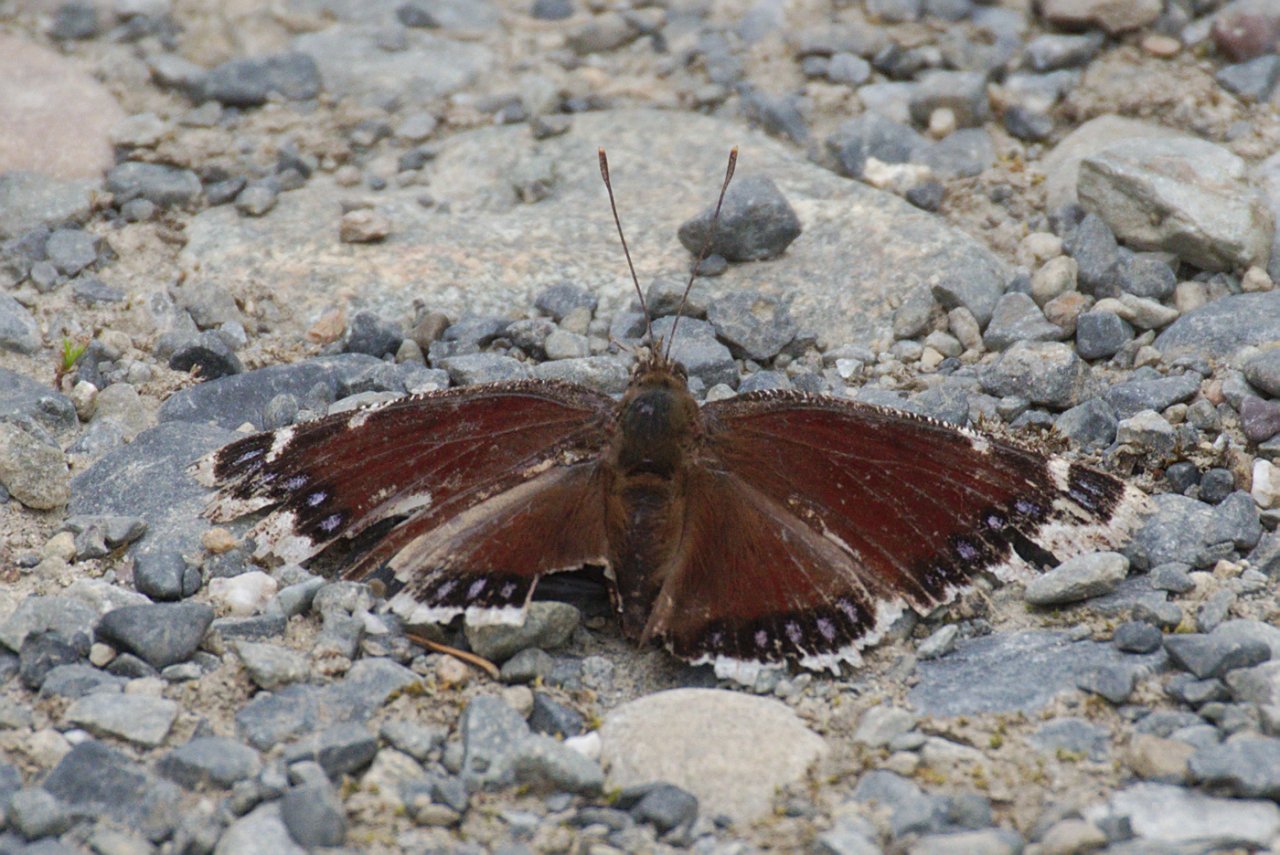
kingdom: Animalia
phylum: Arthropoda
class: Insecta
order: Lepidoptera
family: Nymphalidae
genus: Nymphalis
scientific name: Nymphalis antiopa
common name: Mourning Cloak
